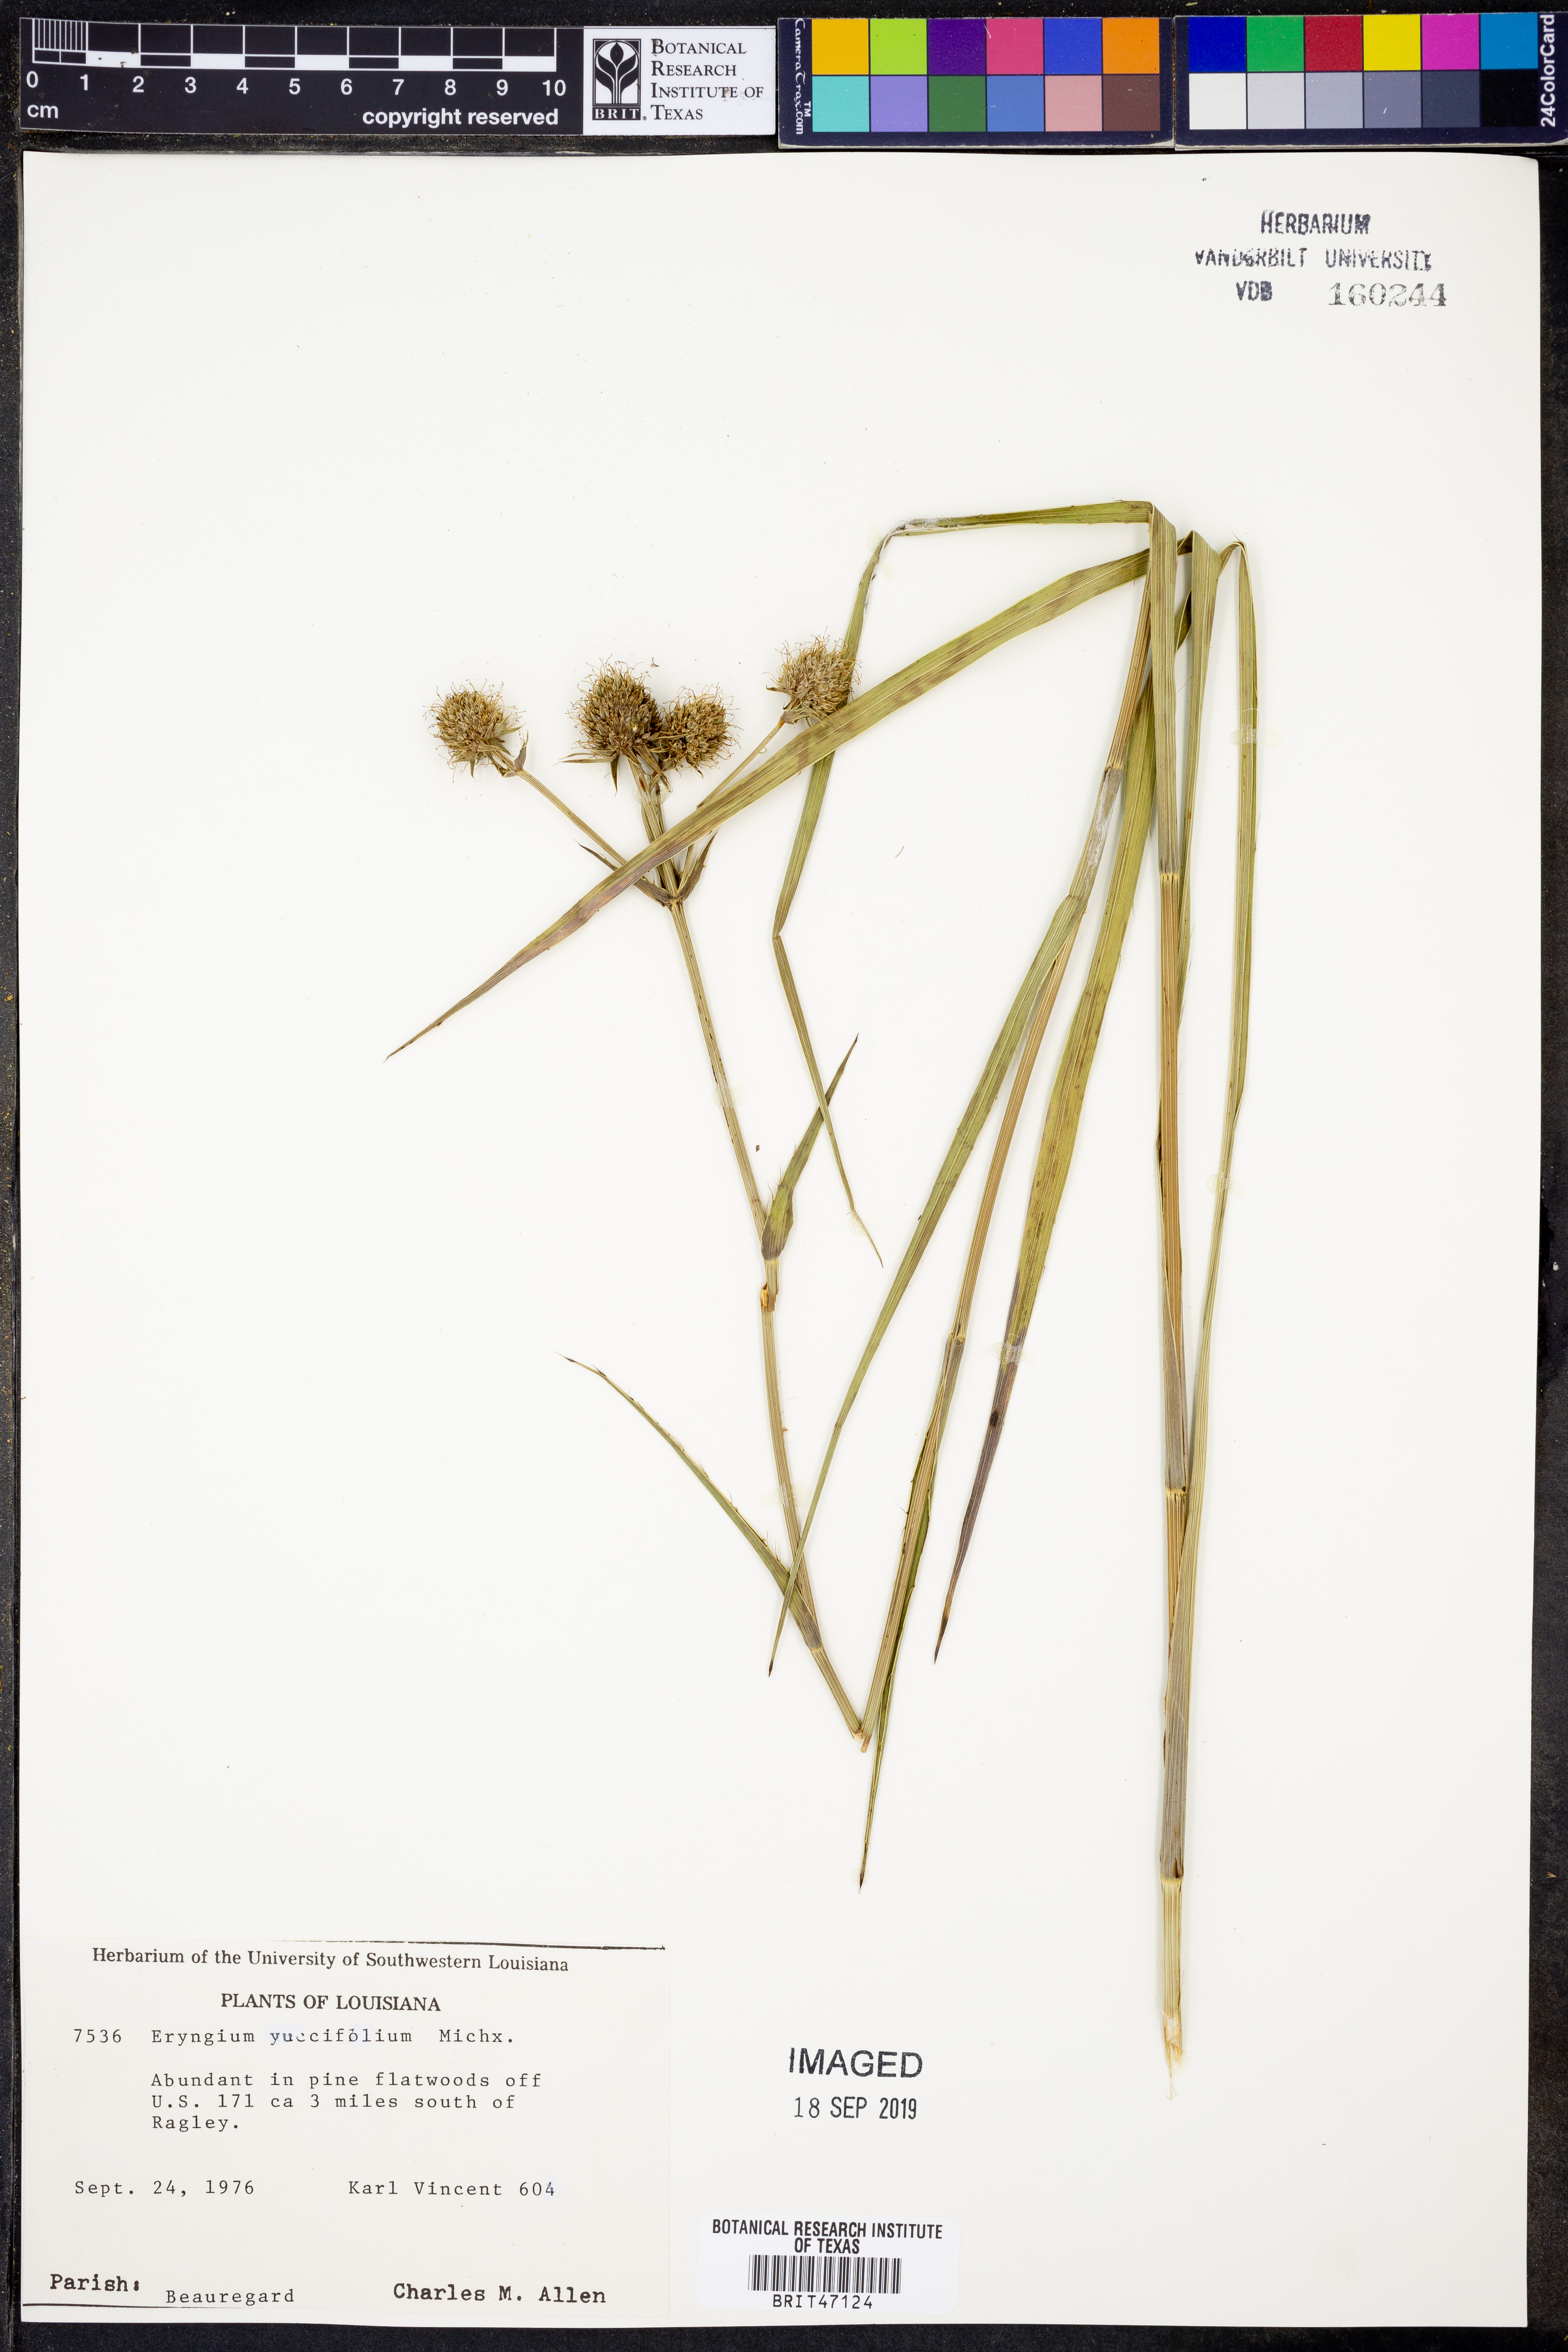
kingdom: Plantae
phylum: Tracheophyta
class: Magnoliopsida
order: Apiales
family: Apiaceae
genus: Eryngium
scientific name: Eryngium yuccifolium
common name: Button eryngo
